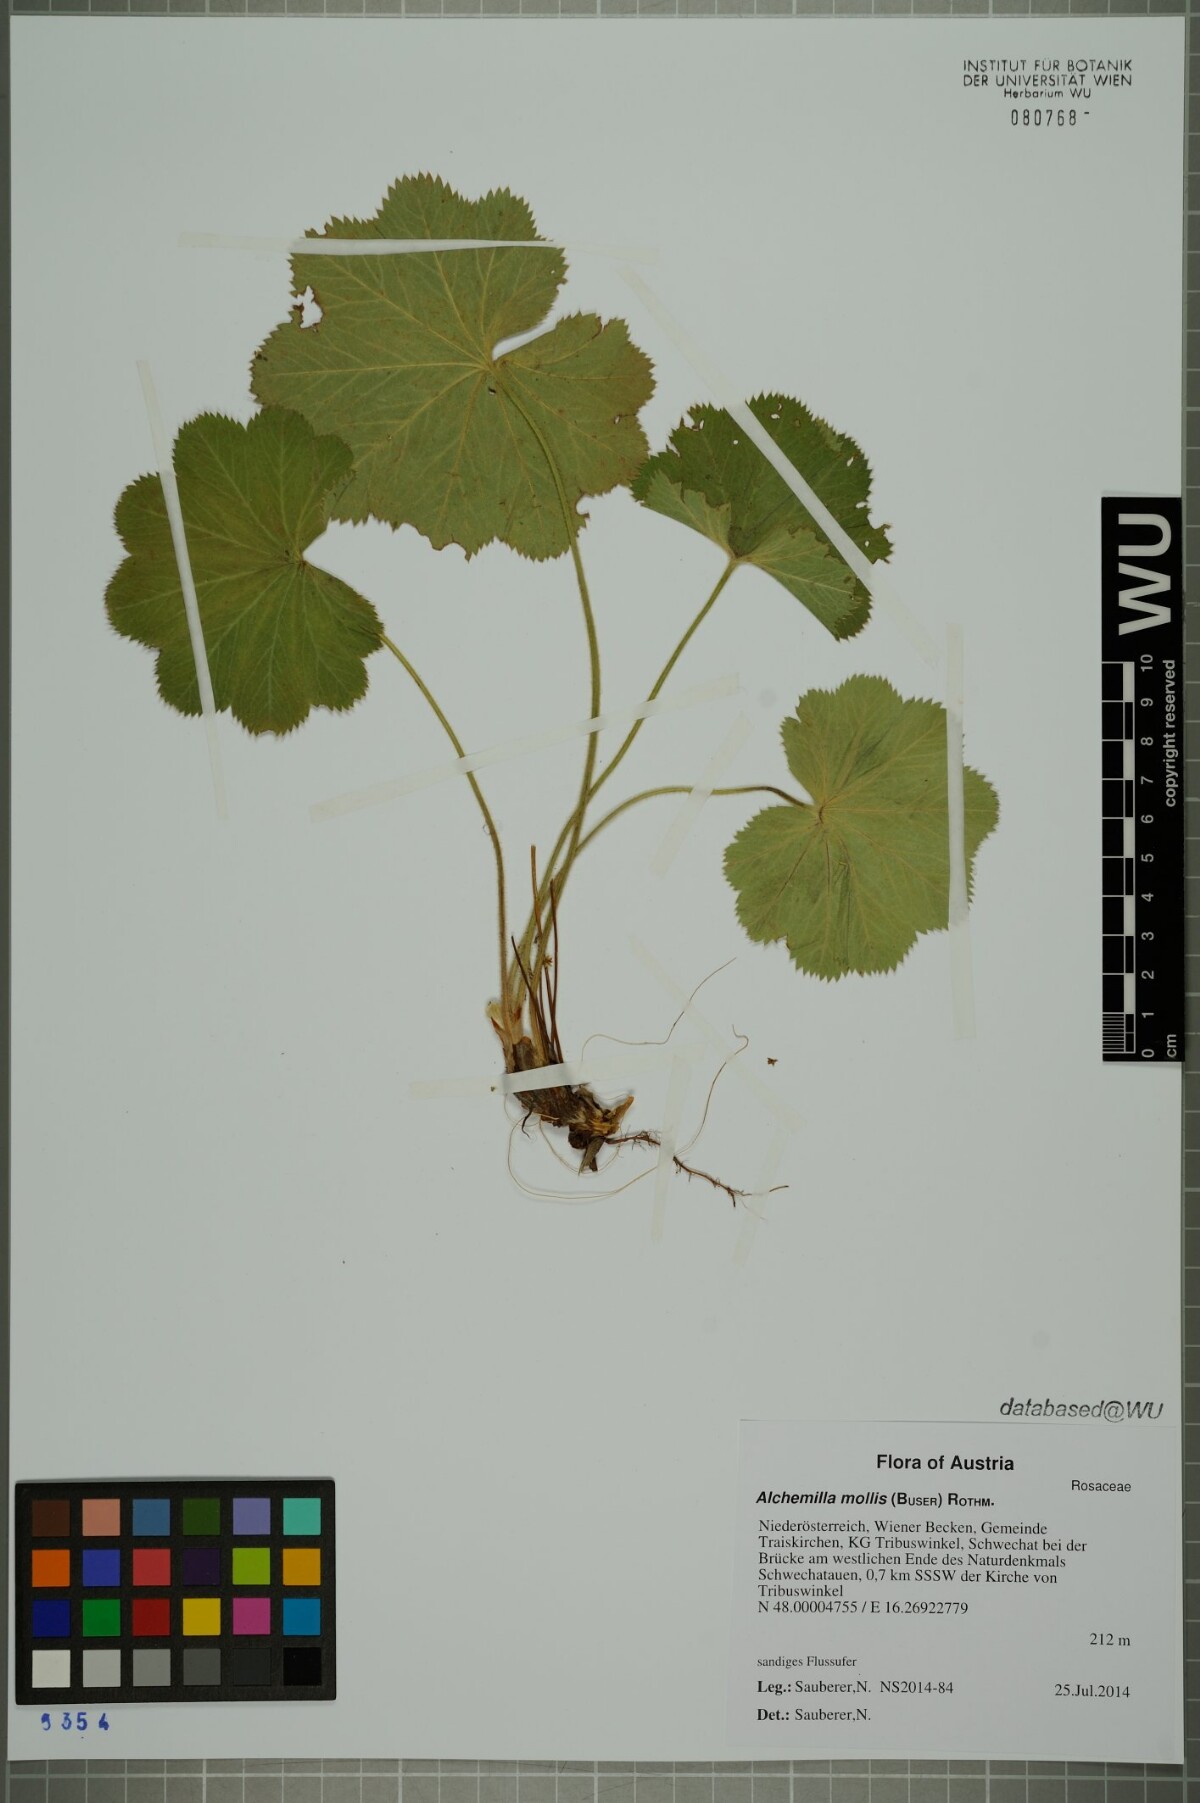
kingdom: Plantae
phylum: Tracheophyta
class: Magnoliopsida
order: Rosales
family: Rosaceae
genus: Alchemilla
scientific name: Alchemilla mollis
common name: Lady's-mantle
